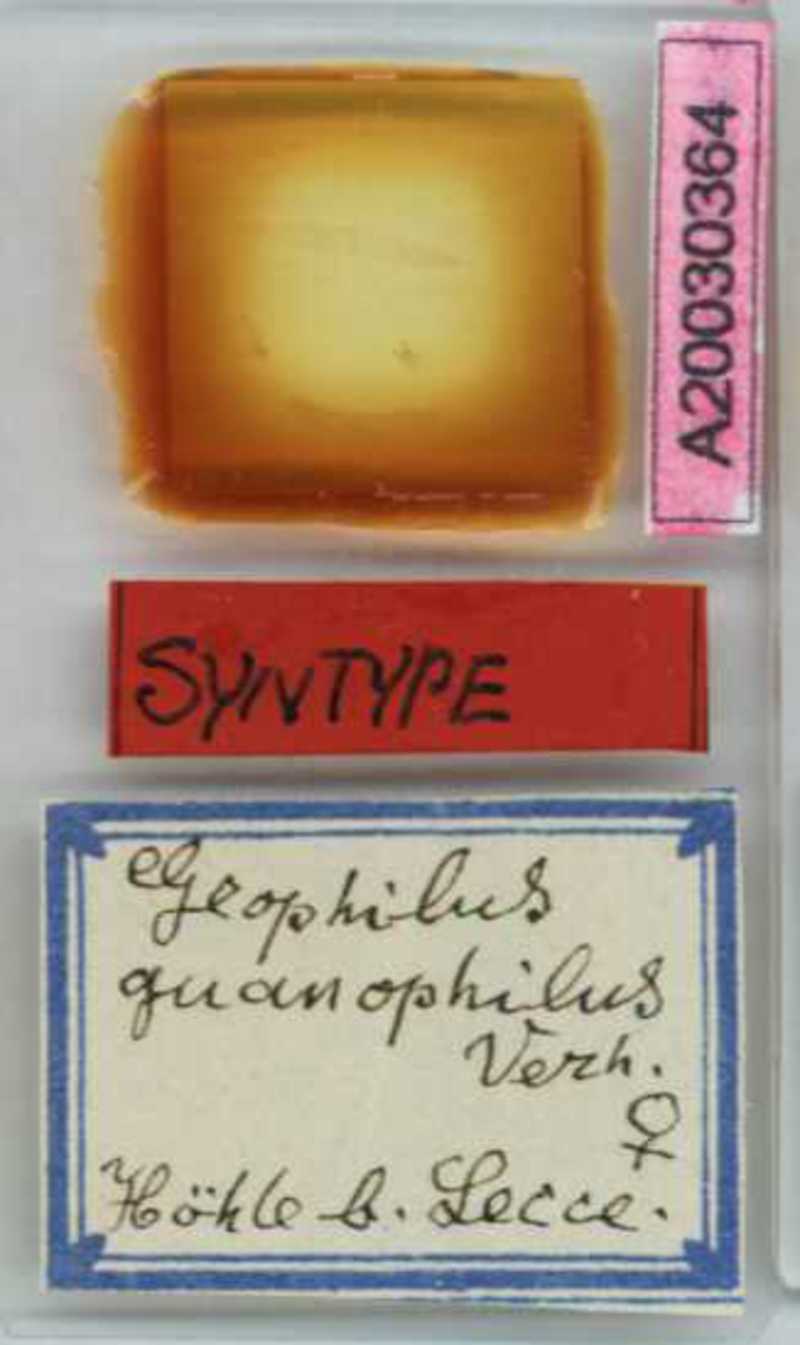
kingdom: Animalia
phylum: Arthropoda
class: Chilopoda
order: Geophilomorpha
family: Geophilidae
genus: Geophilus
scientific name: Geophilus guanophilus
